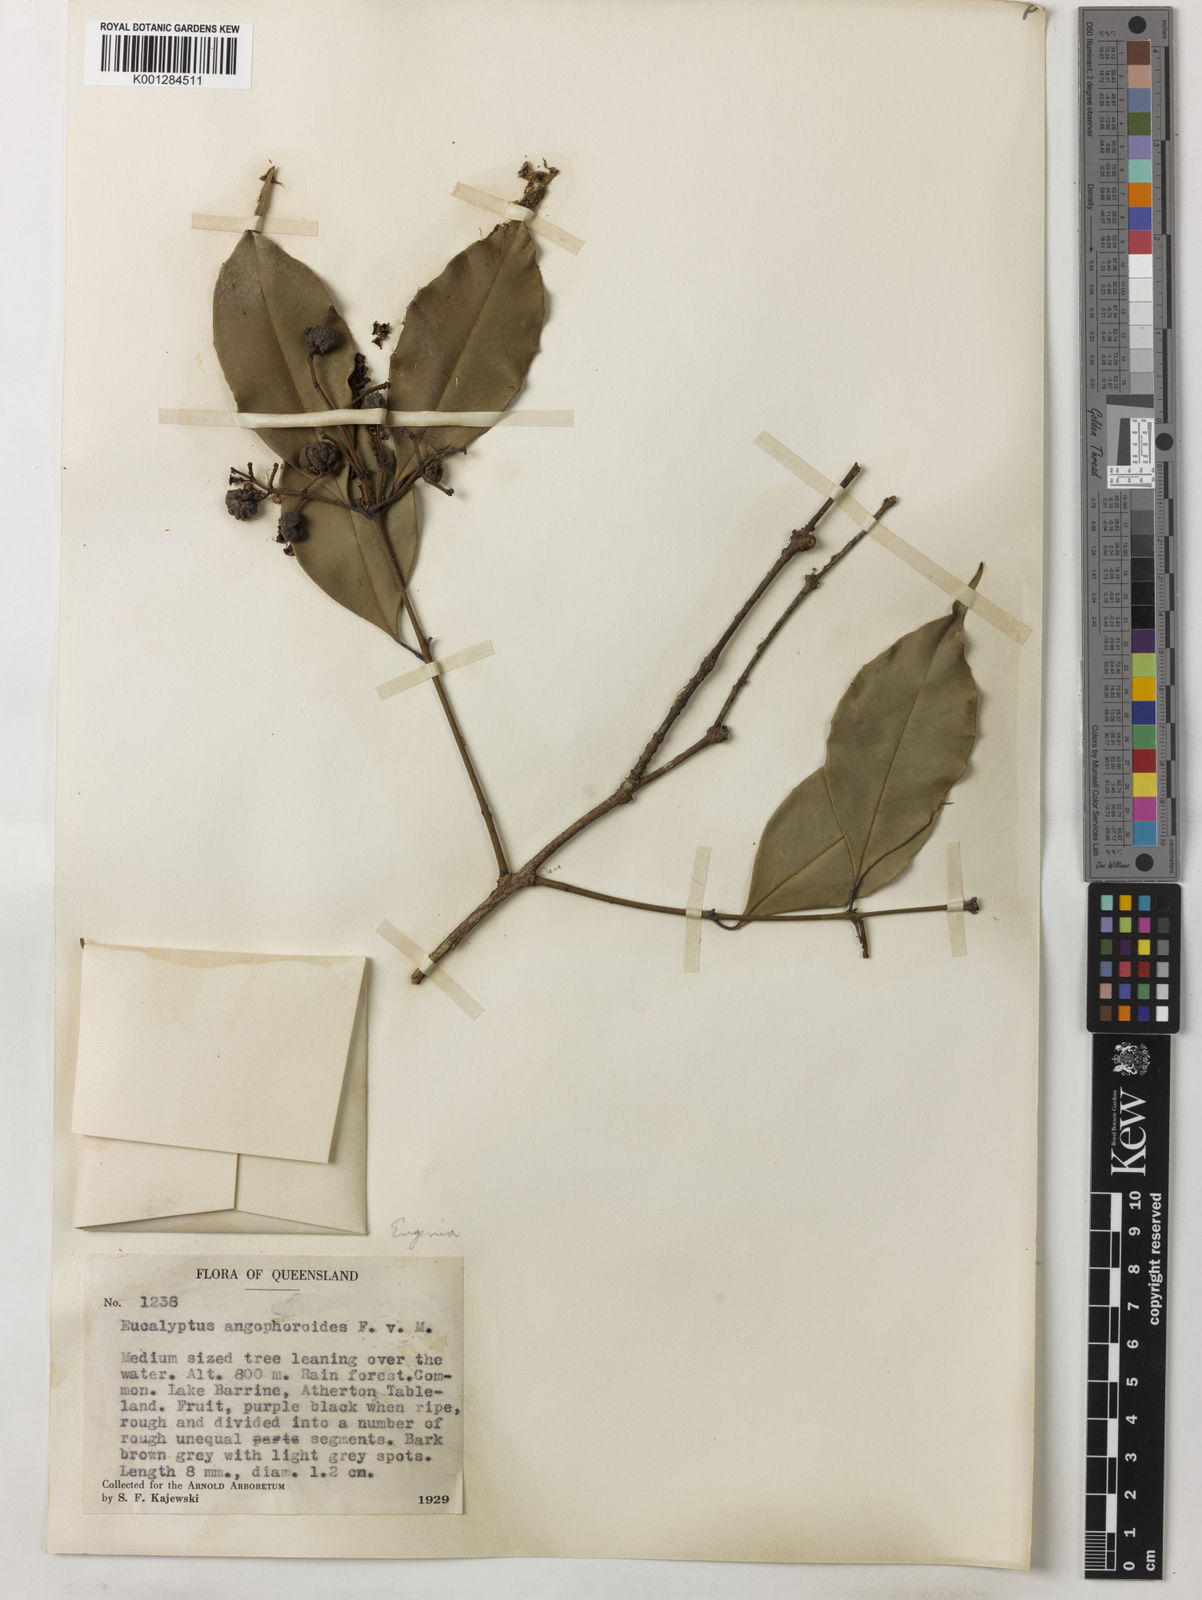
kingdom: Plantae
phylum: Tracheophyta
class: Magnoliopsida
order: Myrtales
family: Myrtaceae
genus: Syzygium
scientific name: Syzygium unipunctatum
